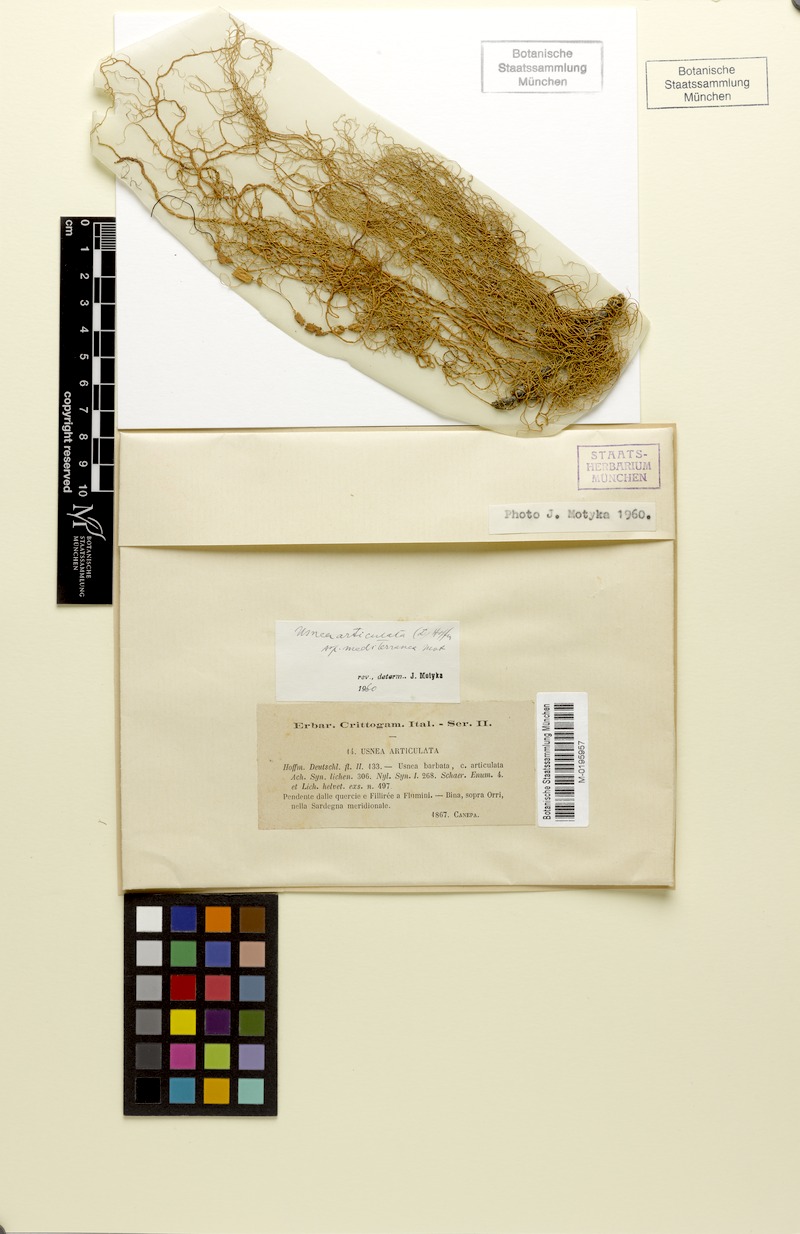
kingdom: Fungi
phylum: Ascomycota
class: Lecanoromycetes
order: Lecanorales
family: Parmeliaceae
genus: Usnea
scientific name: Usnea articulata
